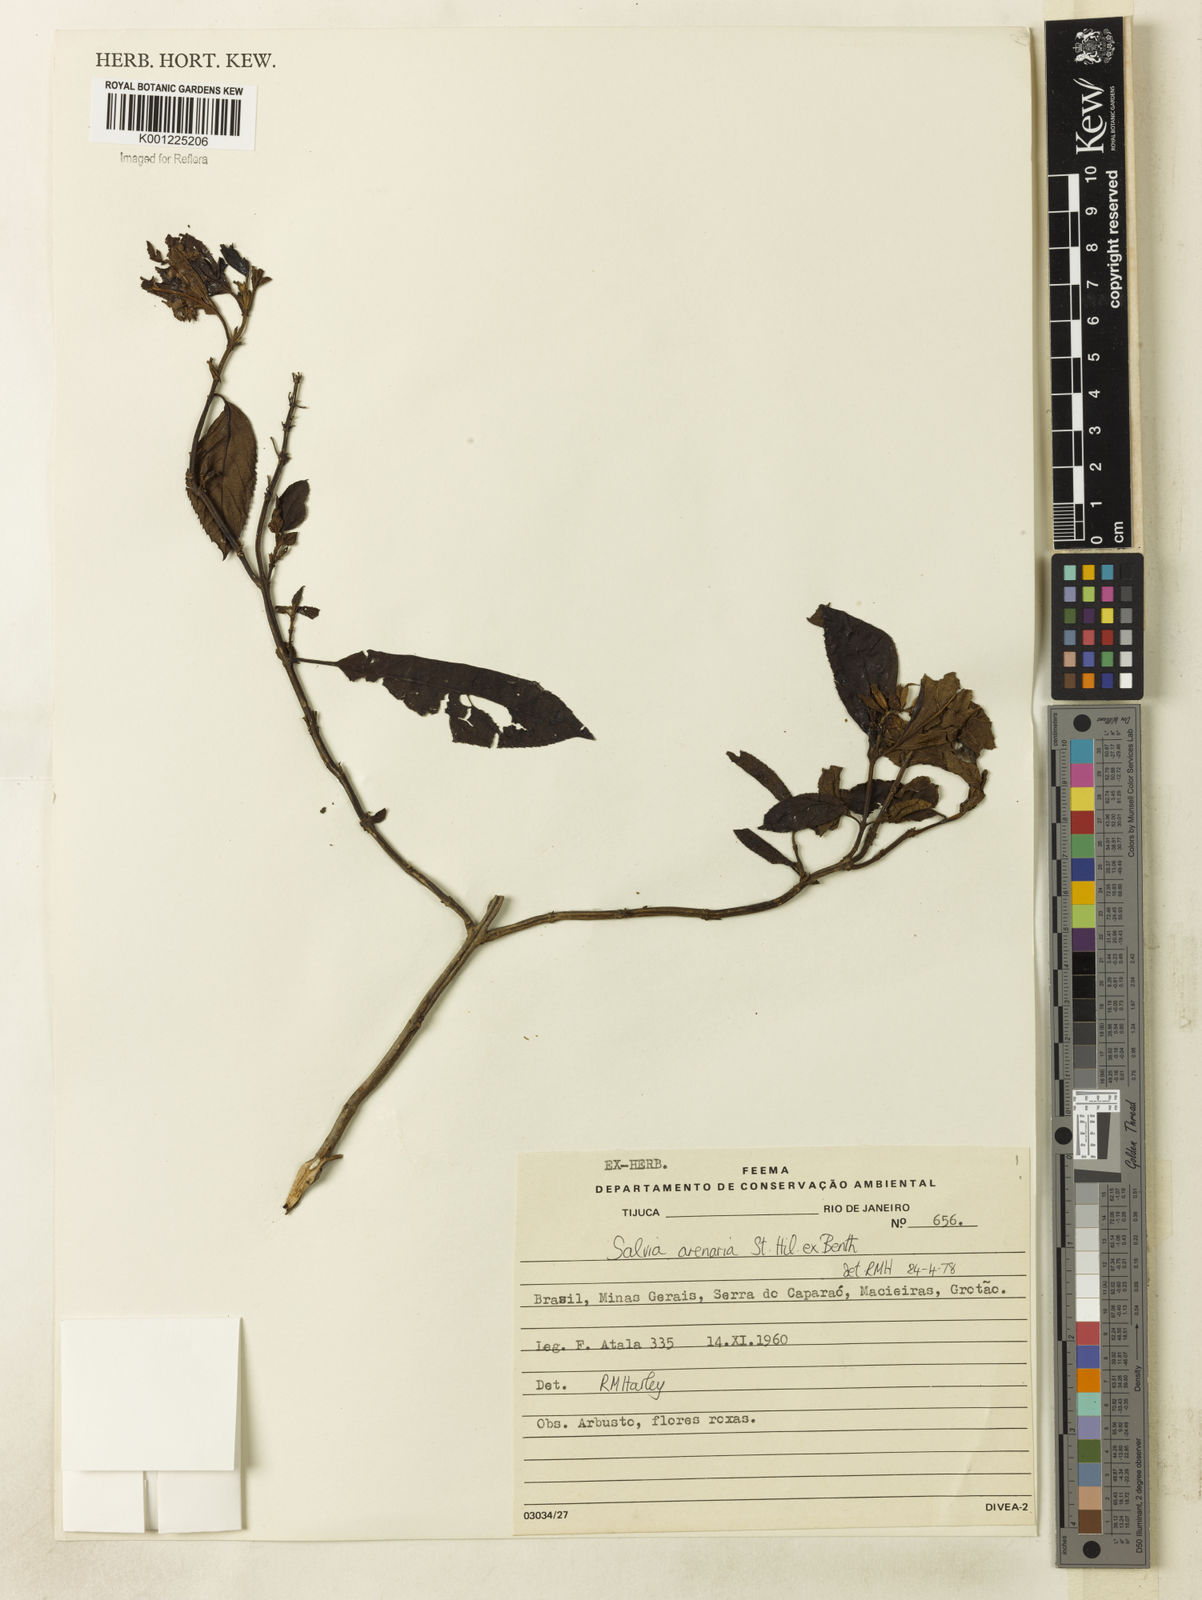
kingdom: Plantae
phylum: Tracheophyta
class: Magnoliopsida
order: Lamiales
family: Lamiaceae
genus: Salvia
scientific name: Salvia arenaria
